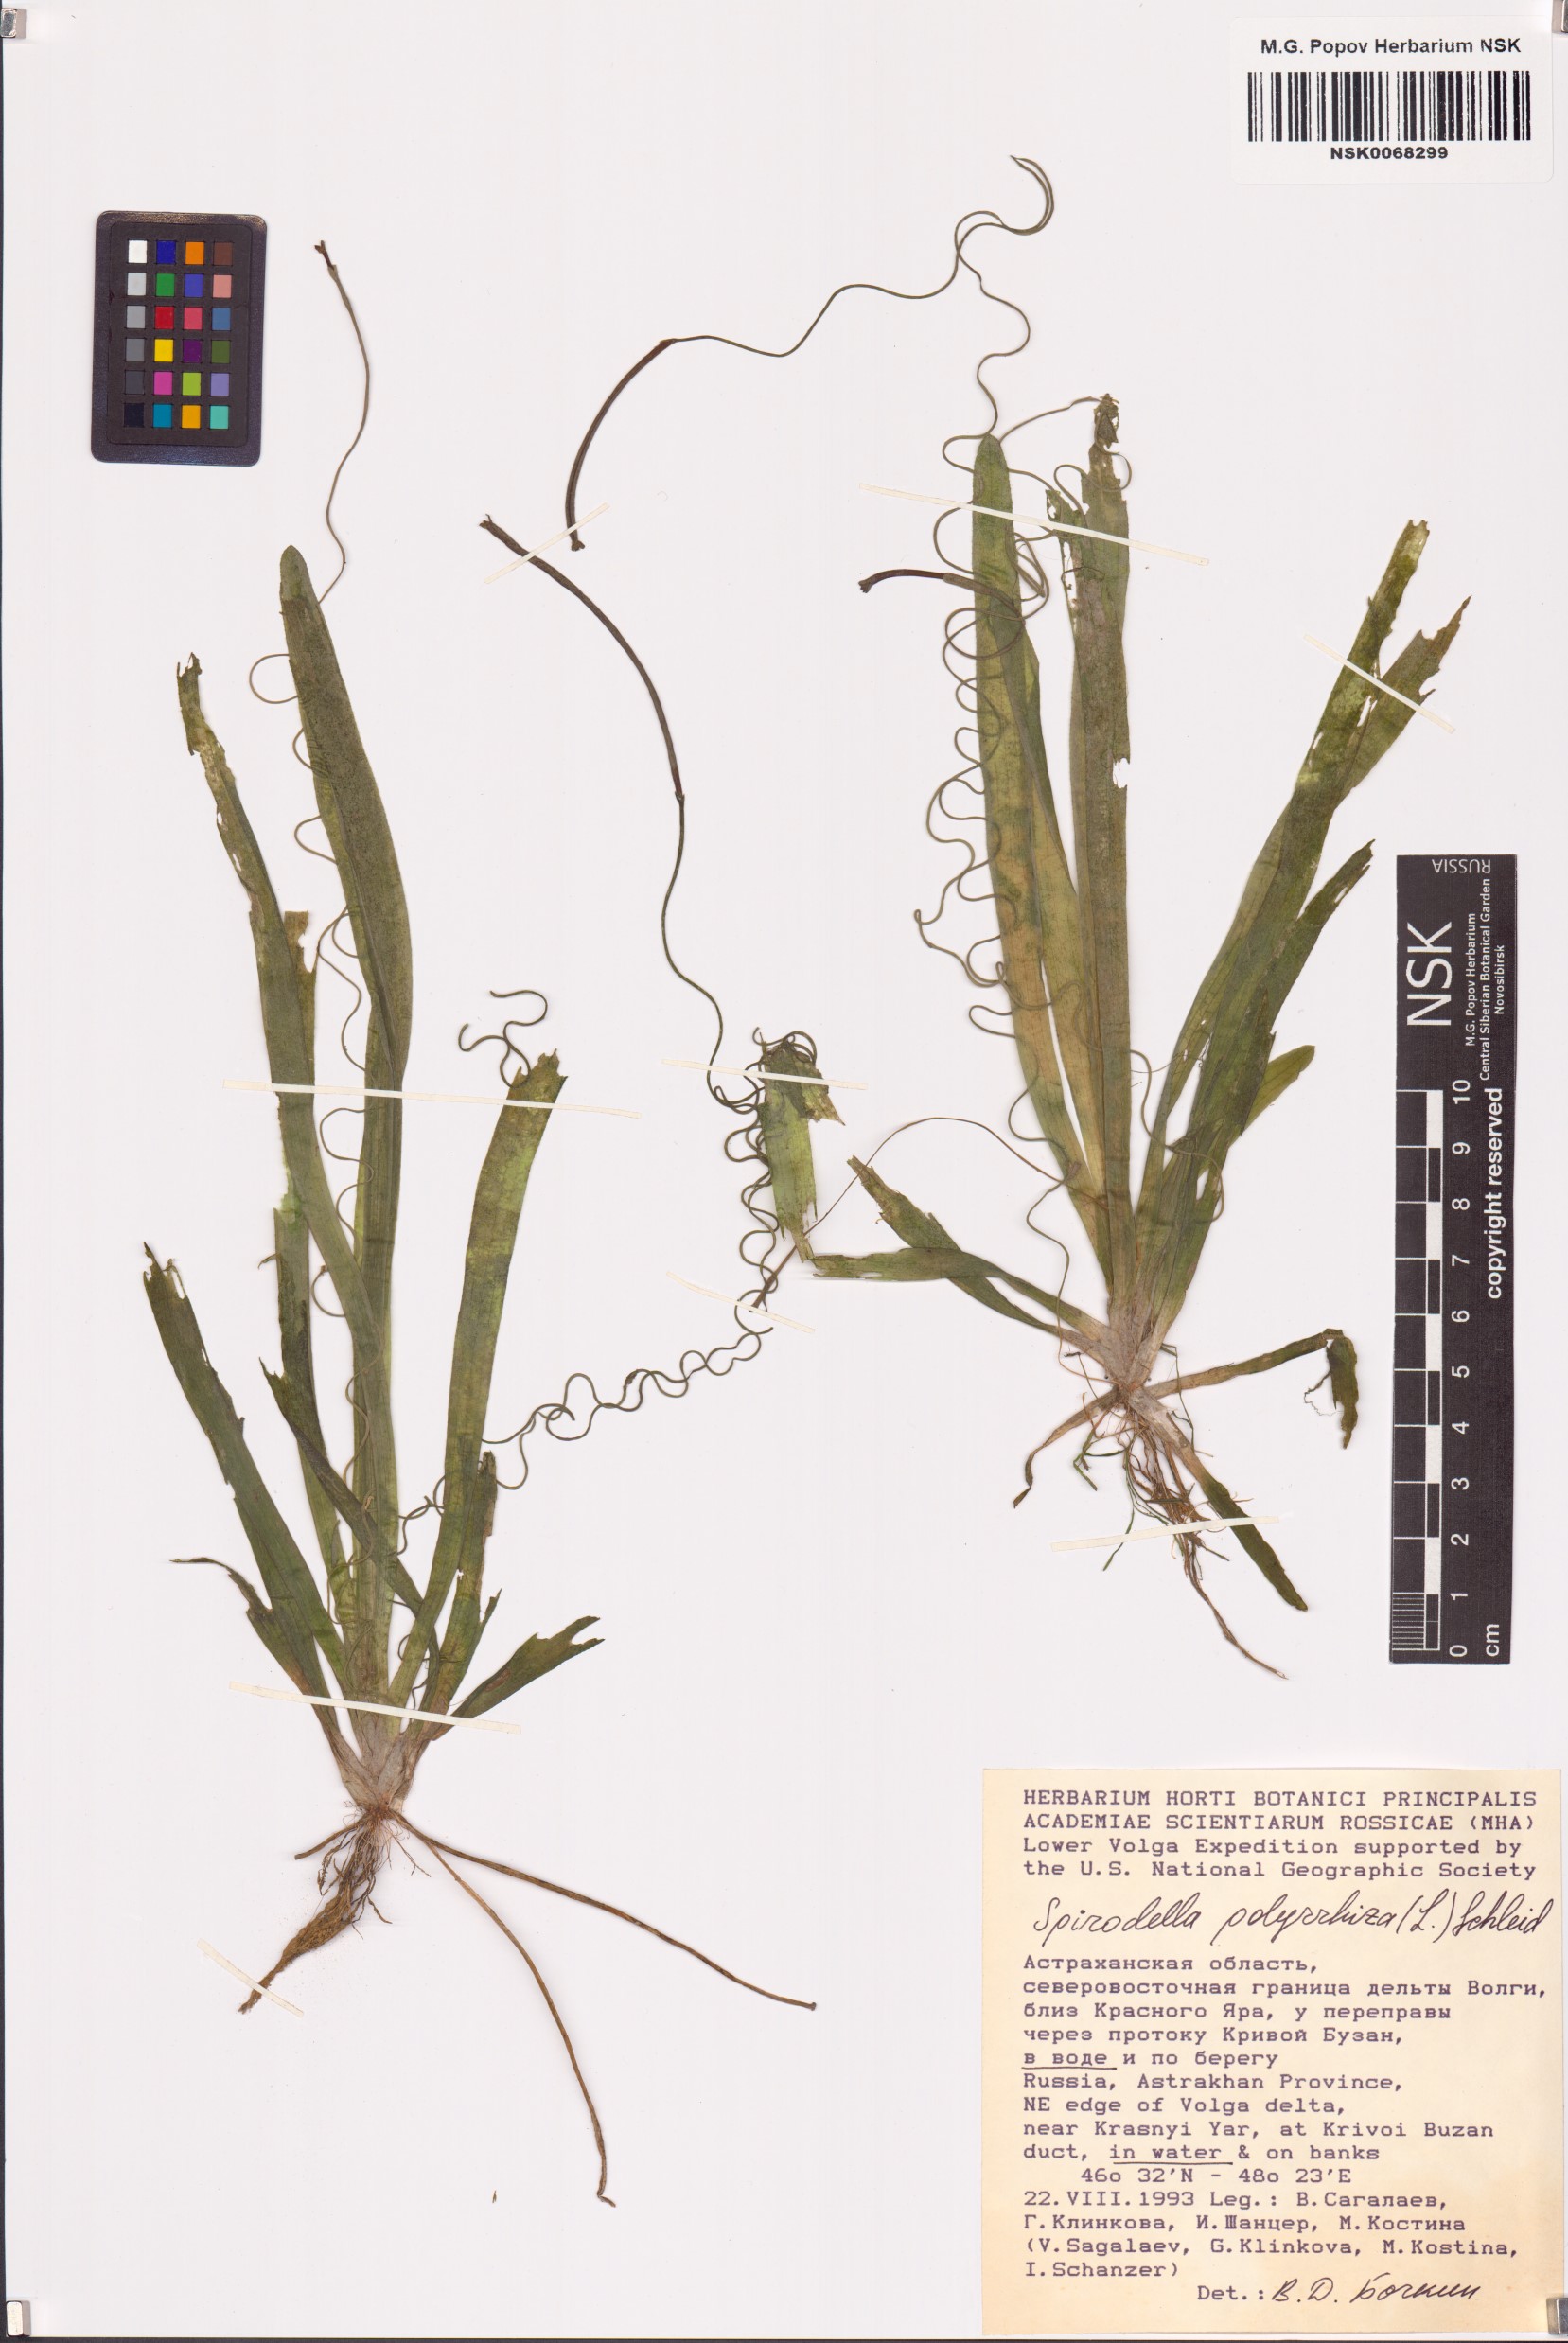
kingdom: Plantae
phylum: Tracheophyta
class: Liliopsida
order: Alismatales
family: Araceae
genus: Spirodela
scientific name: Spirodela polyrhiza
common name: Great duckweed
